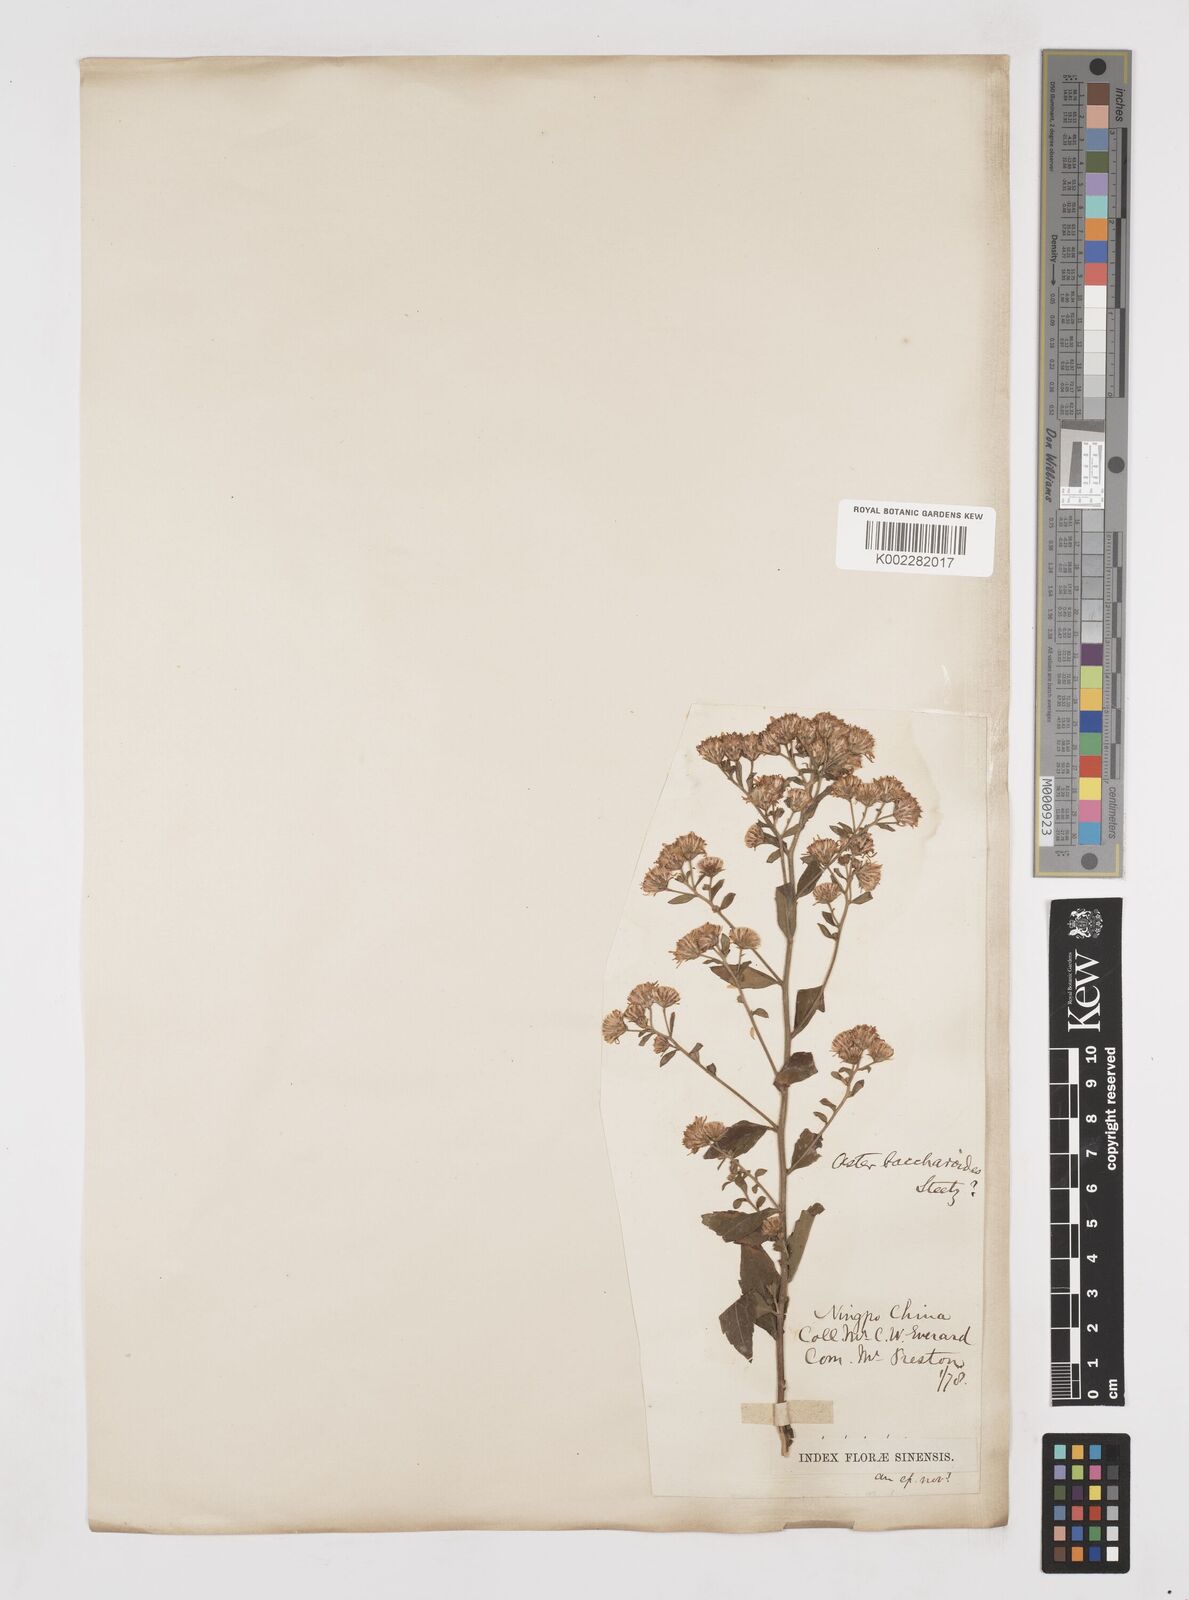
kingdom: Plantae
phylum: Tracheophyta
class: Magnoliopsida
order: Asterales
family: Asteraceae
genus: Aster
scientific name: Aster baccharoides
